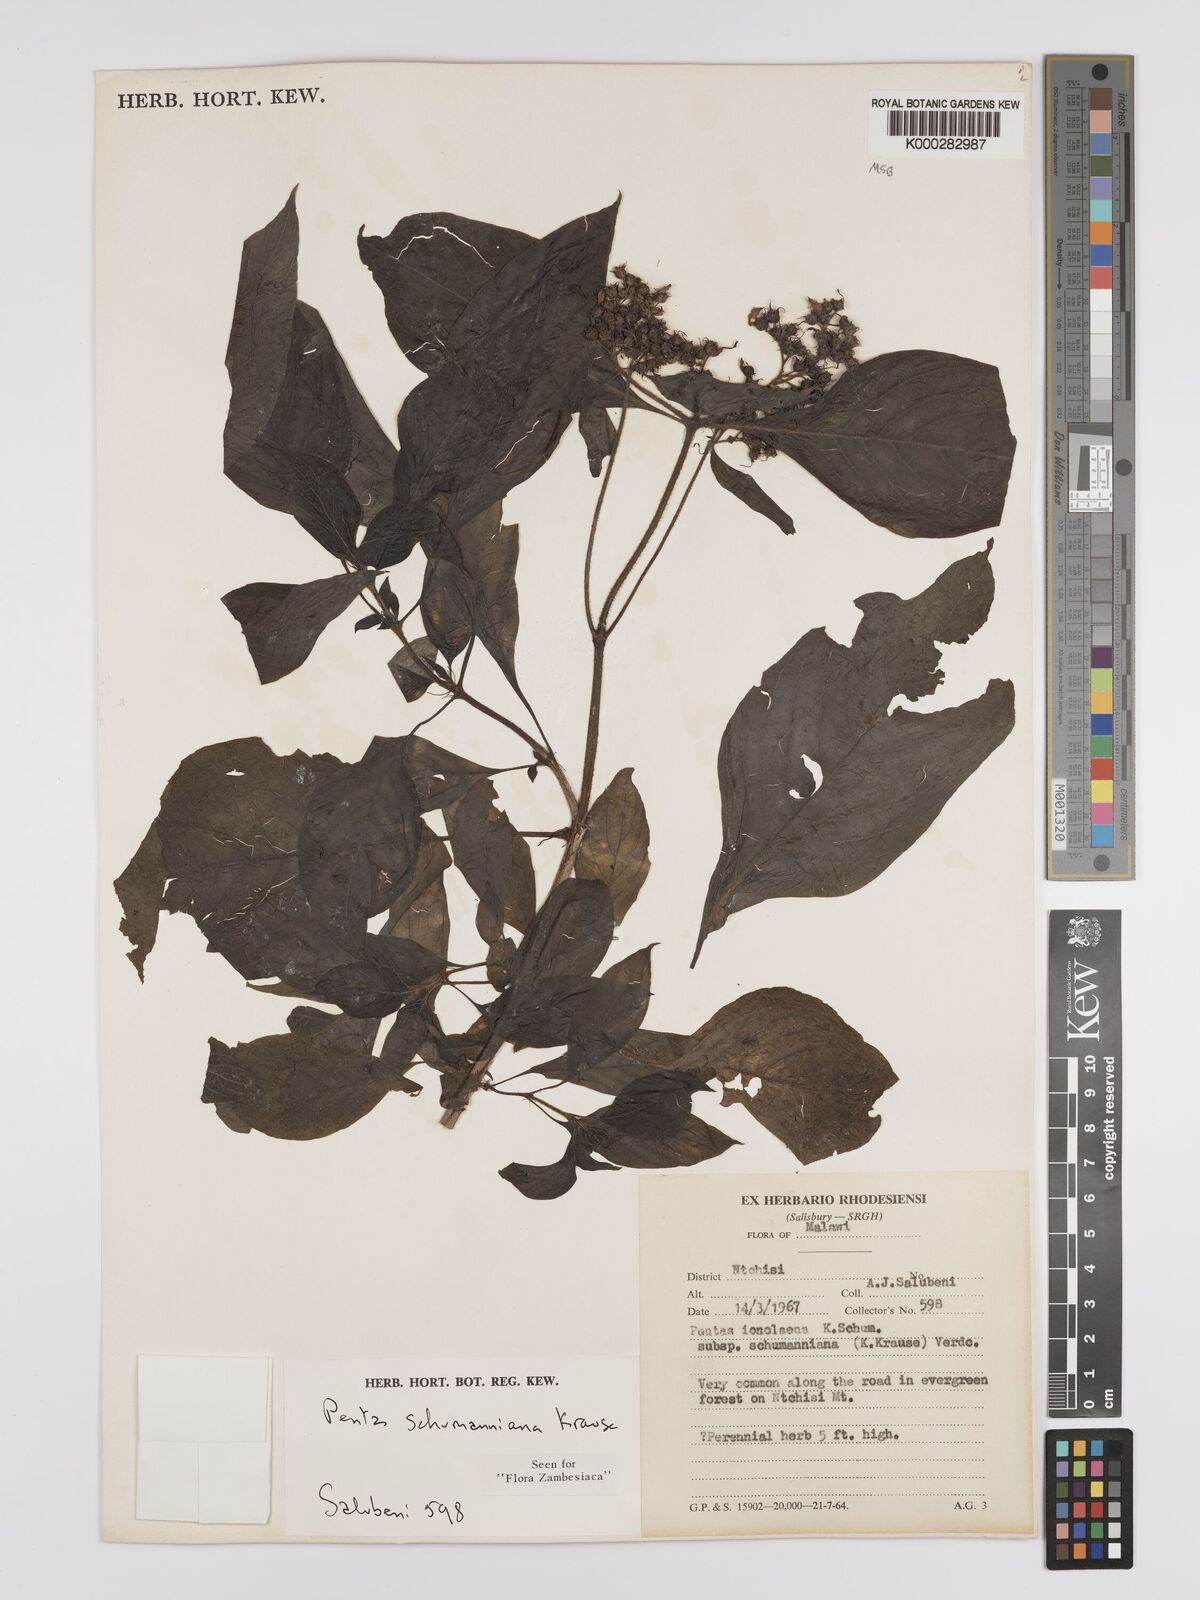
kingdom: Plantae
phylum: Tracheophyta
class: Magnoliopsida
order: Gentianales
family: Rubiaceae
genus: Phyllopentas
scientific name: Phyllopentas schumanniana
